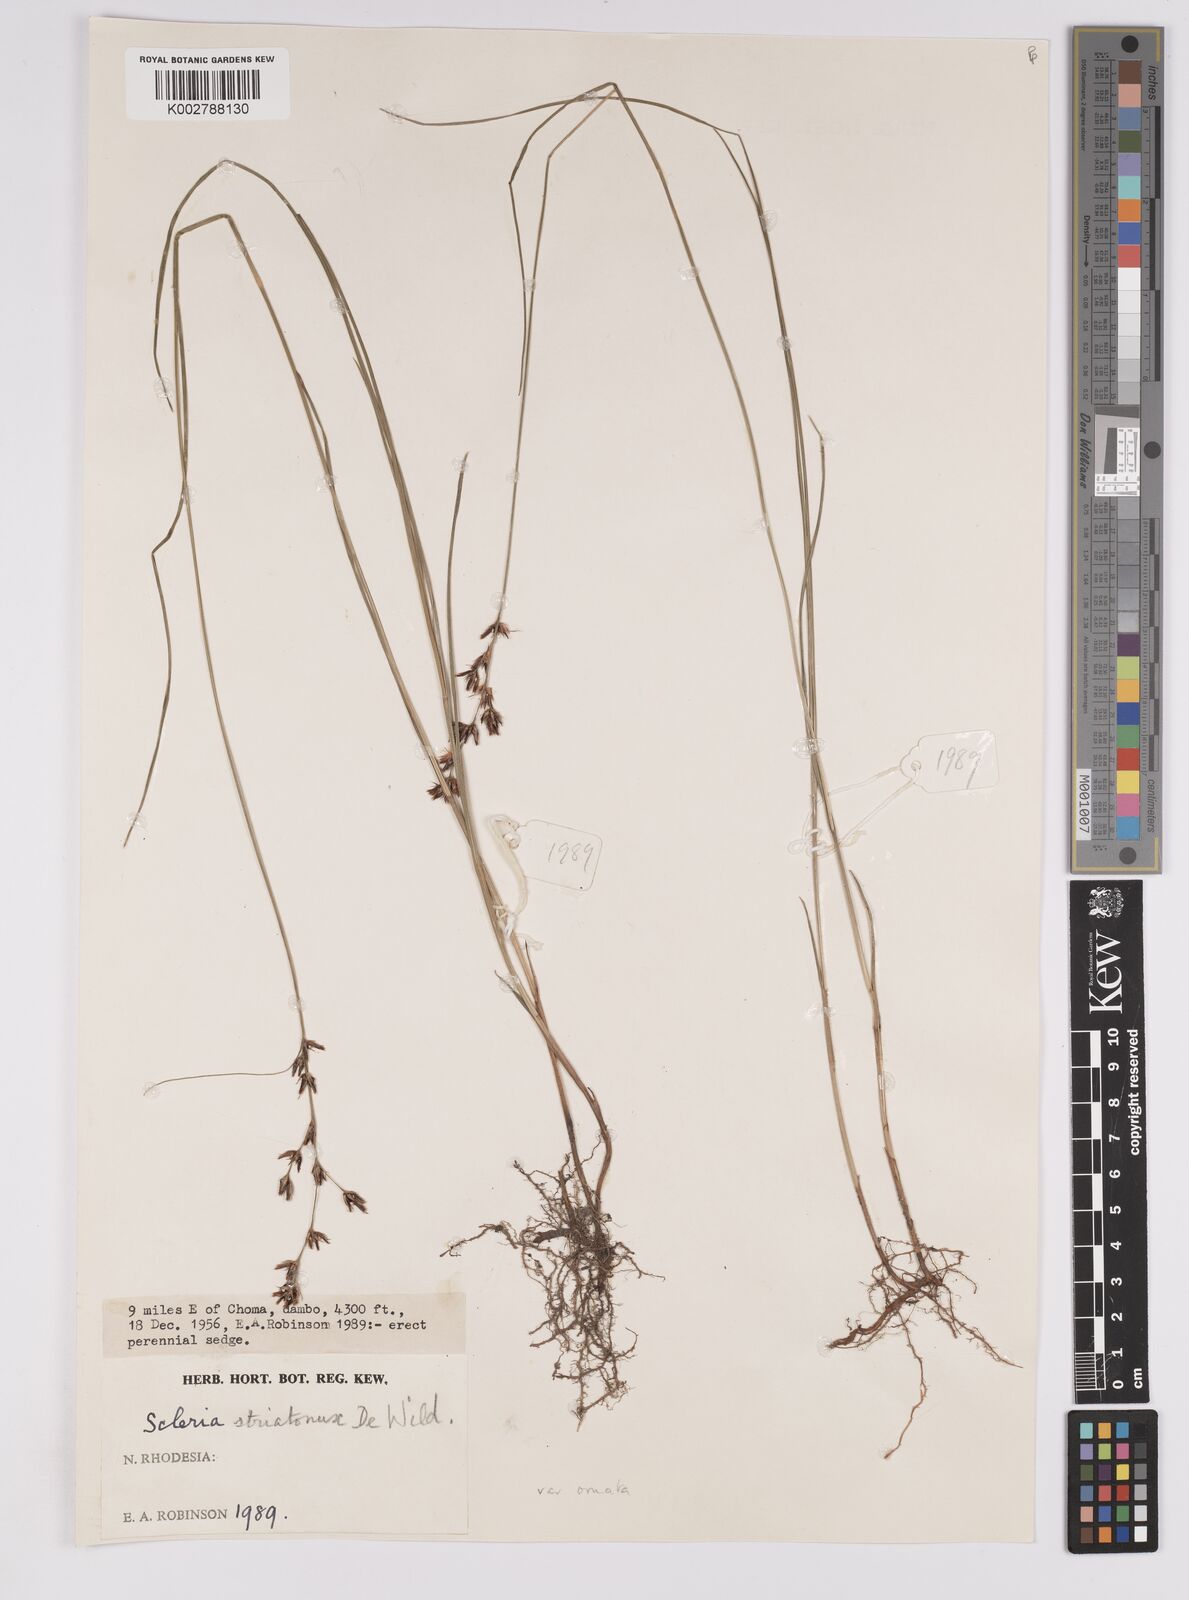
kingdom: Plantae
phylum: Tracheophyta
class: Liliopsida
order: Poales
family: Cyperaceae
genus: Scleria
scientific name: Scleria woodii
